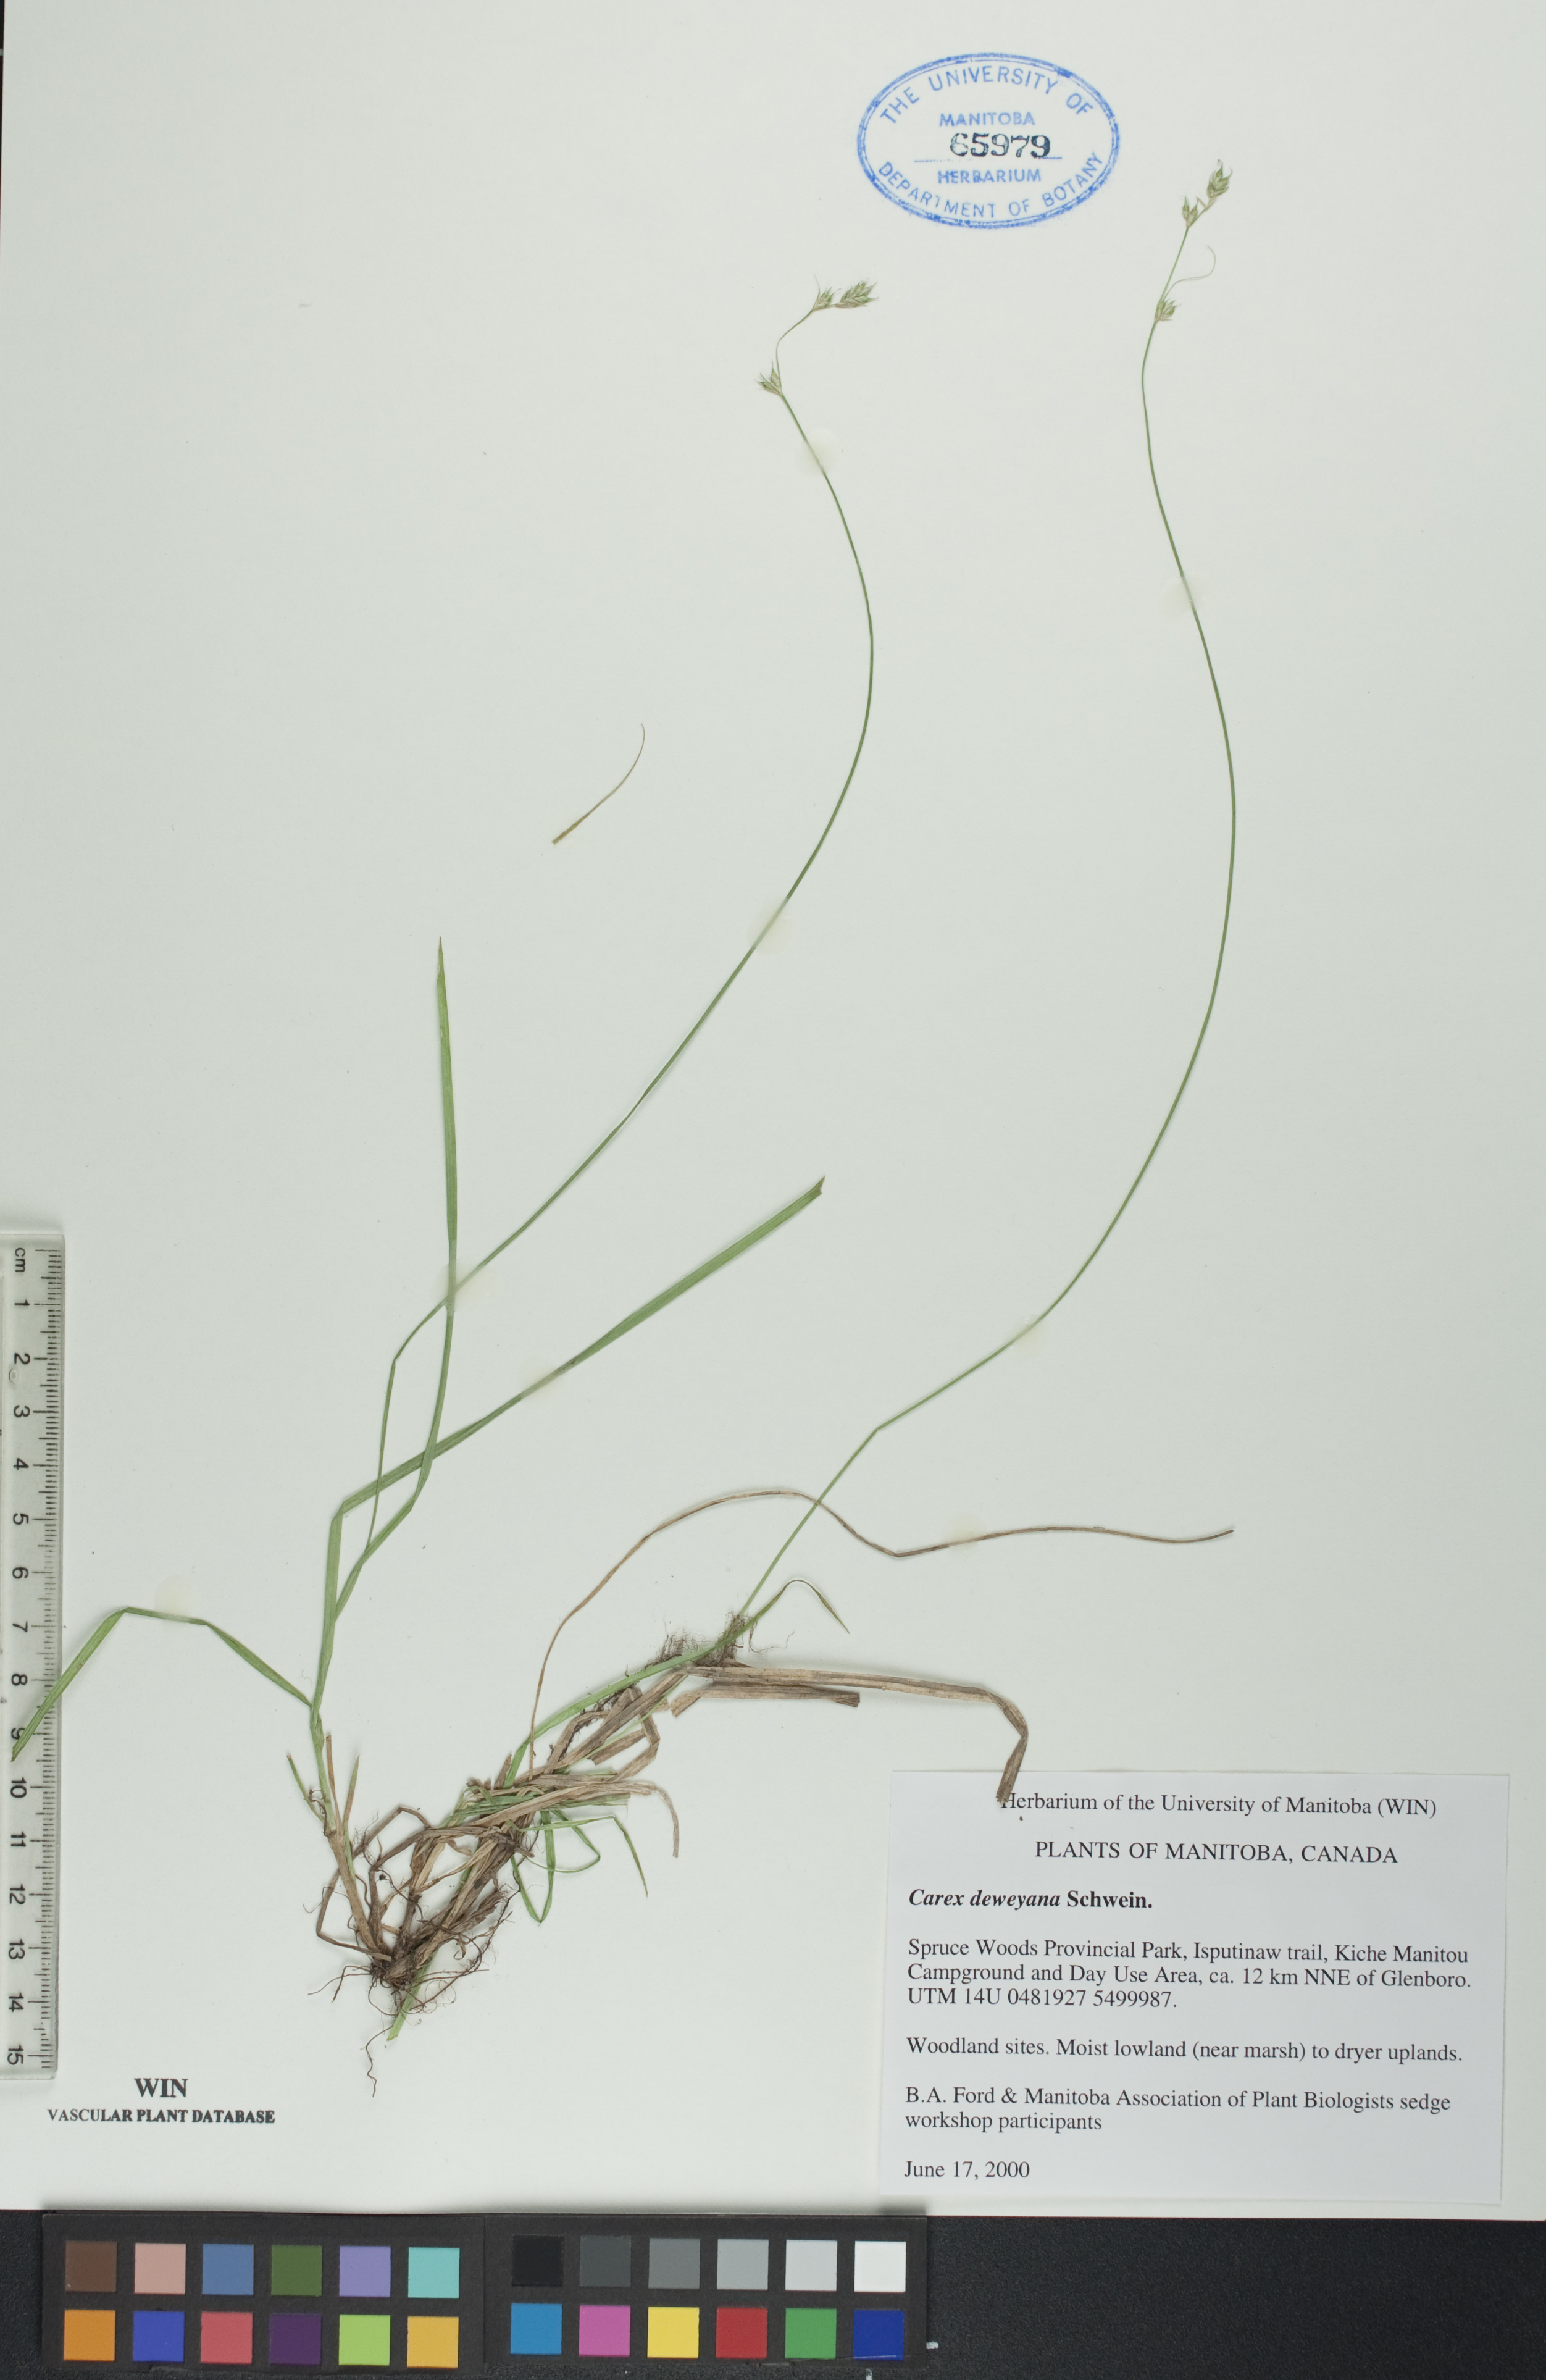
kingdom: Plantae
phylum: Tracheophyta
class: Liliopsida
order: Poales
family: Cyperaceae
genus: Carex
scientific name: Carex deweyana
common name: Dewey's sedge
